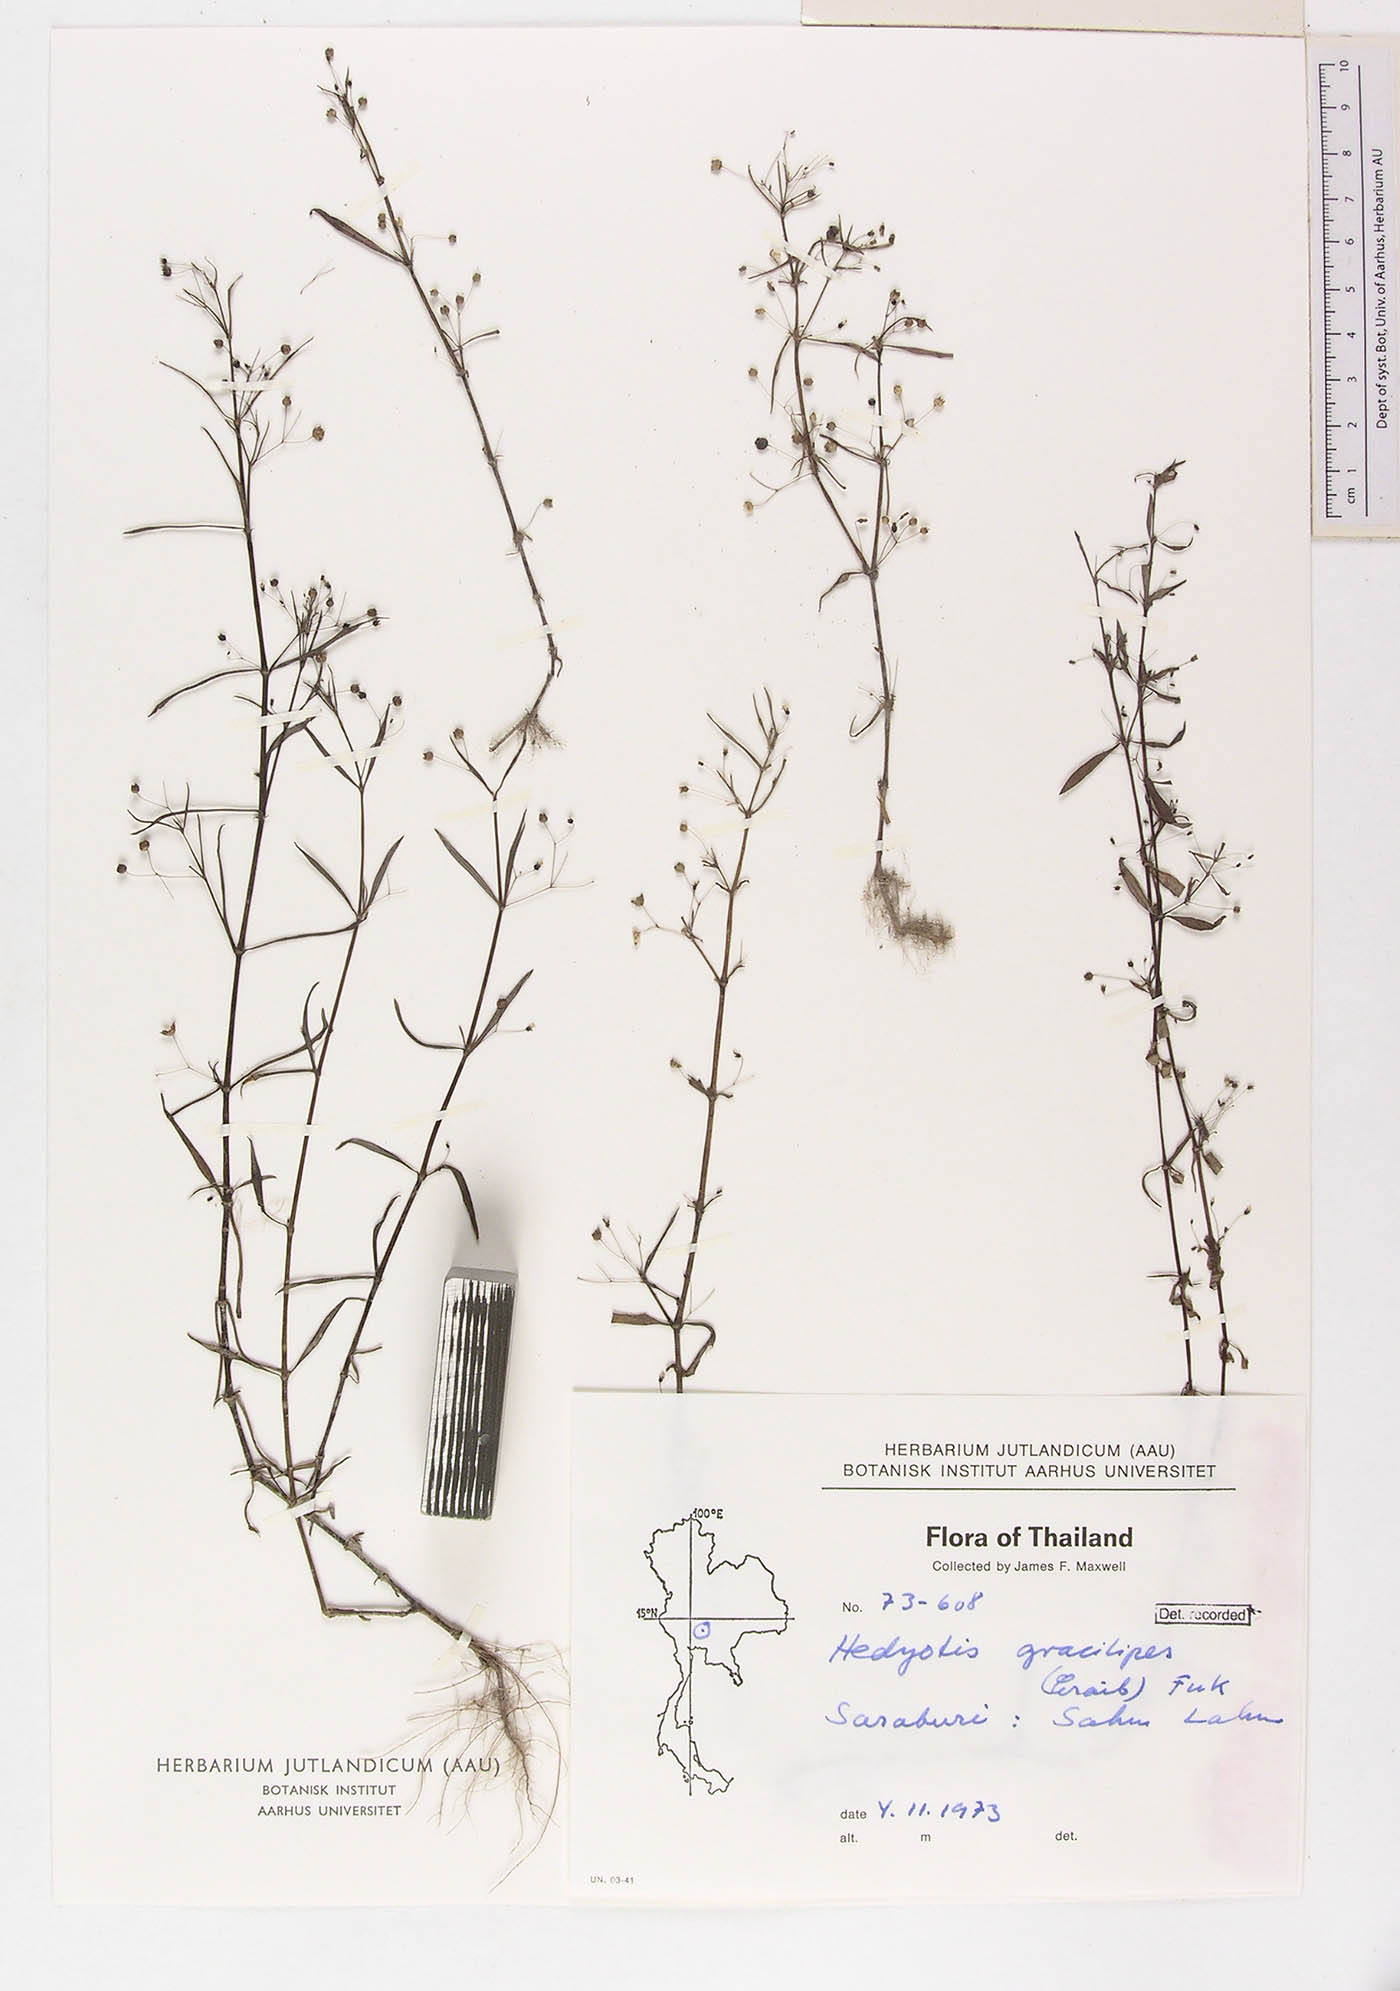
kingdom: Plantae
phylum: Tracheophyta
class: Magnoliopsida
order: Gentianales
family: Rubiaceae
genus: Scleromitrion
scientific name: Scleromitrion
